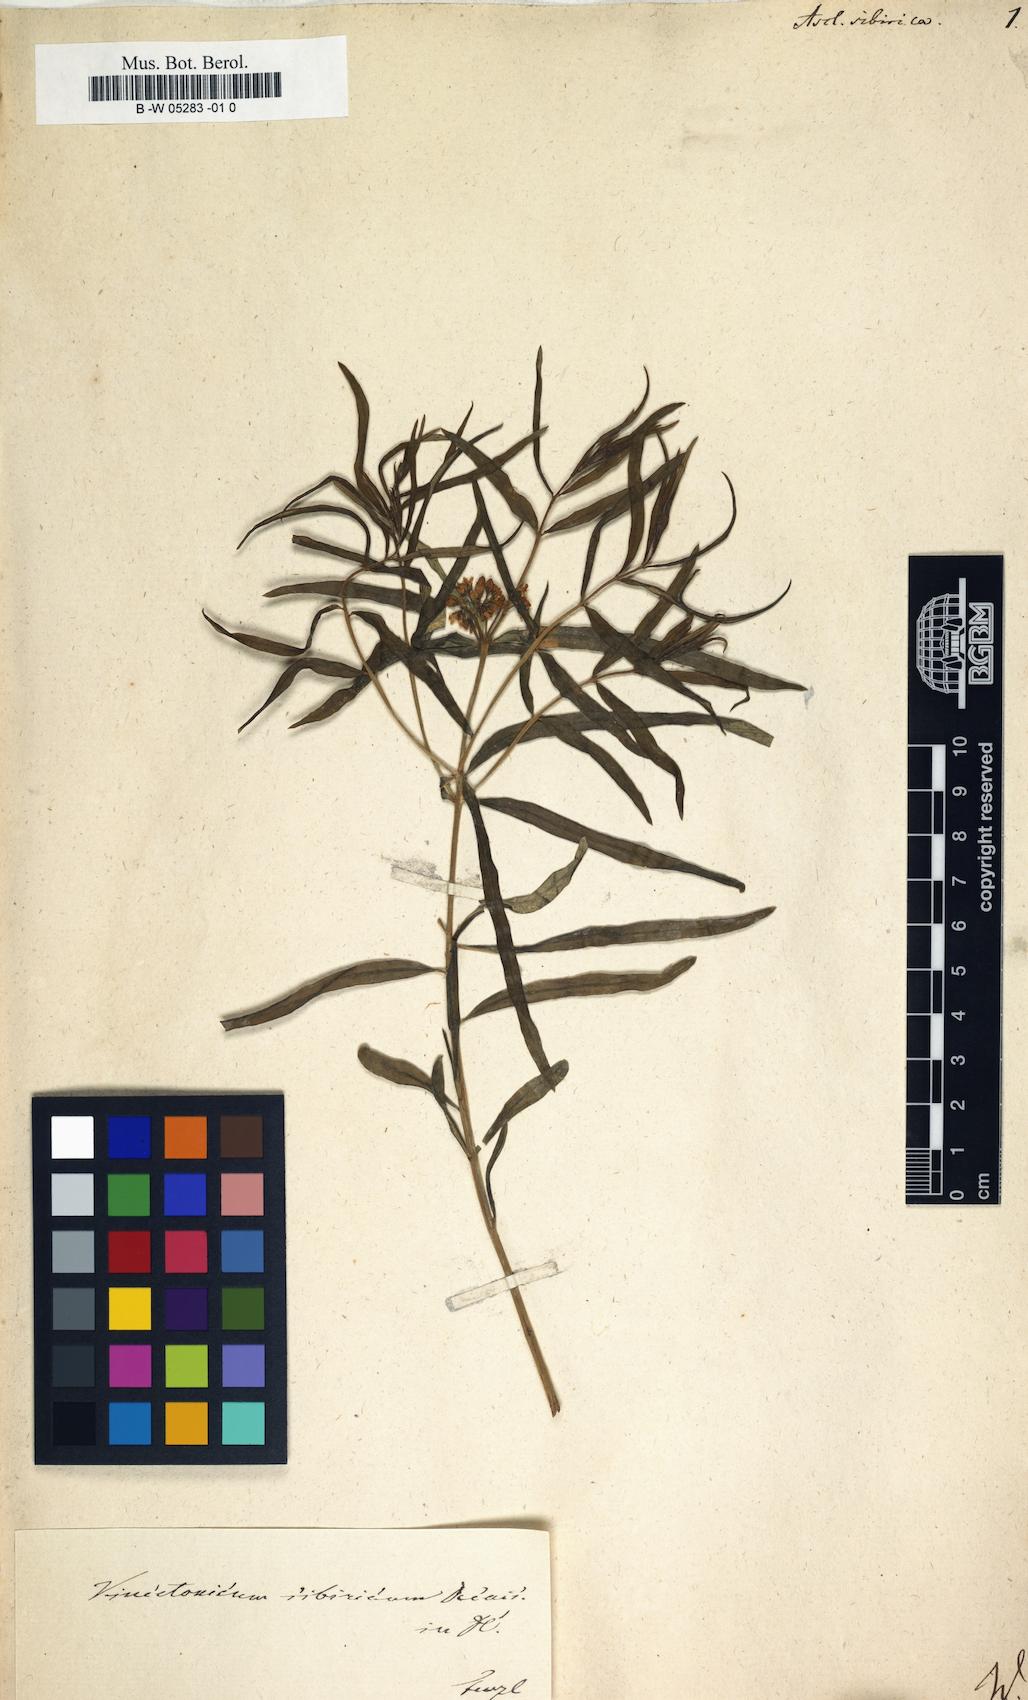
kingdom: Plantae
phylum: Tracheophyta
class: Magnoliopsida
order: Gentianales
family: Apocynaceae
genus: Cynanchum
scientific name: Cynanchum thesioides
